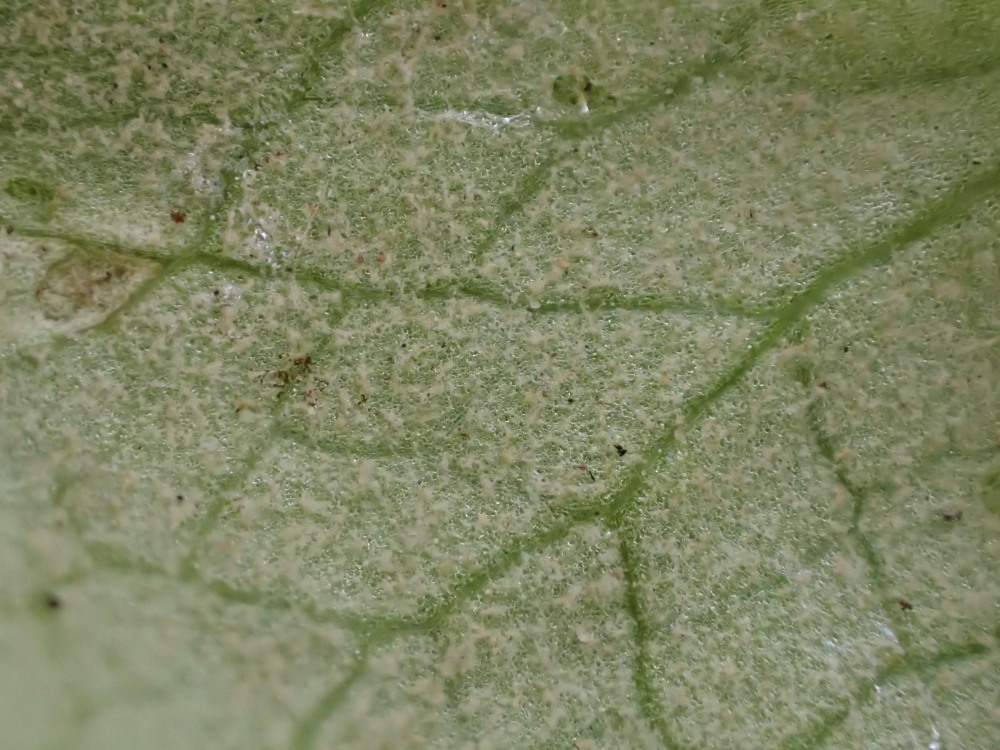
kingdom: Chromista
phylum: Oomycota
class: Peronosporea
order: Peronosporales
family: Peronosporaceae
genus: Peronospora
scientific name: Peronospora ficariae
